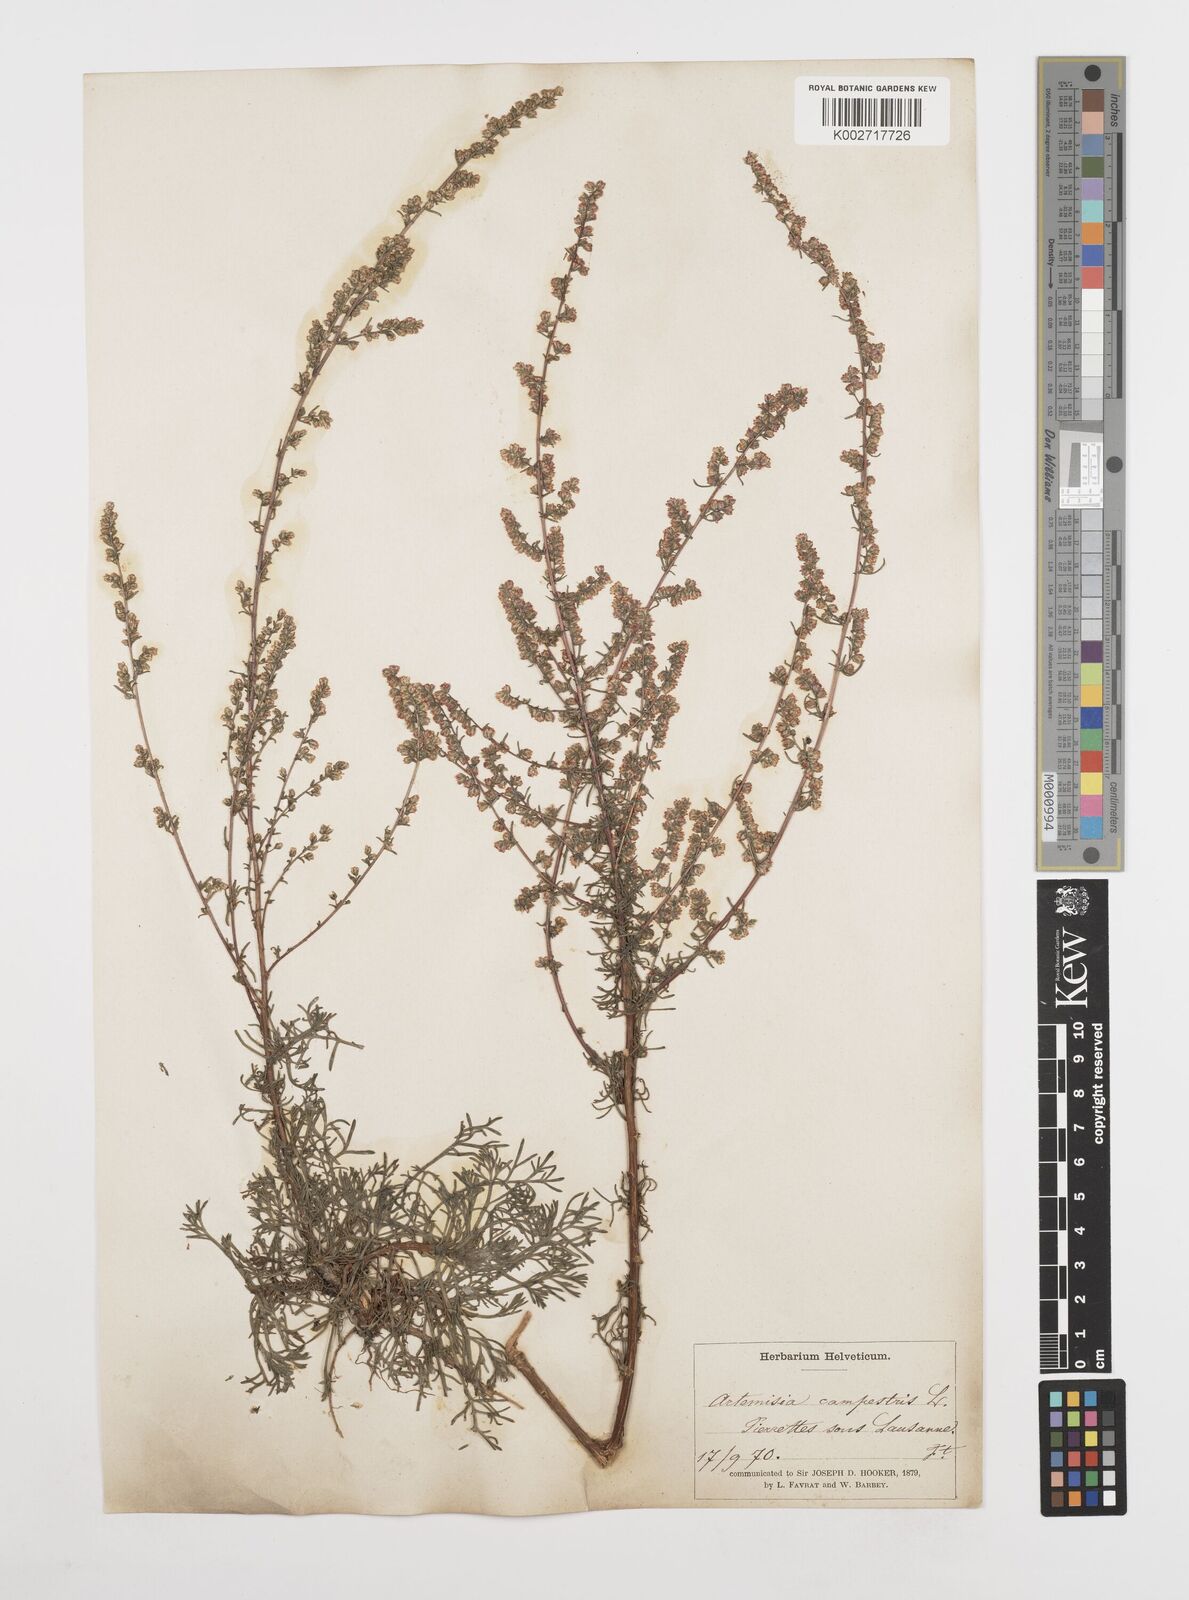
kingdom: Plantae
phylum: Tracheophyta
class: Magnoliopsida
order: Asterales
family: Asteraceae
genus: Artemisia
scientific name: Artemisia campestris
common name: Field wormwood
